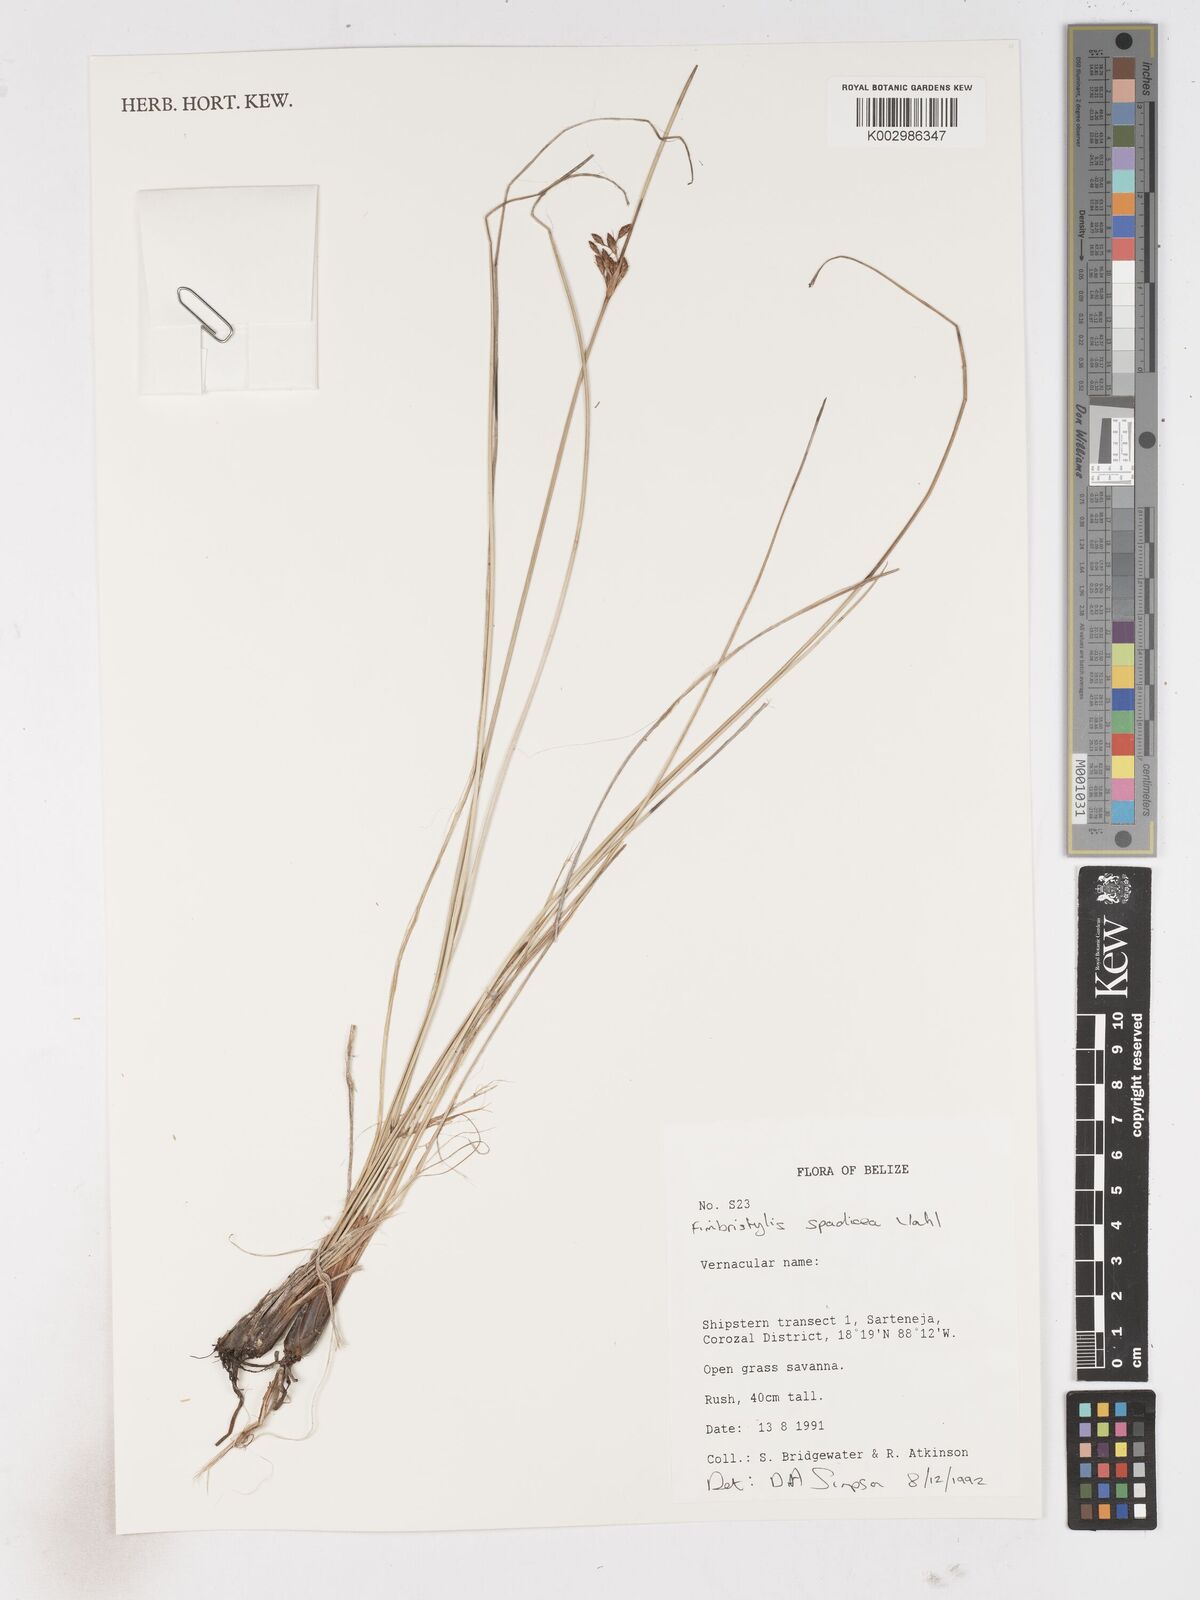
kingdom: Plantae
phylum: Tracheophyta
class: Liliopsida
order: Poales
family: Cyperaceae
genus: Fimbristylis
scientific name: Fimbristylis spadicea
